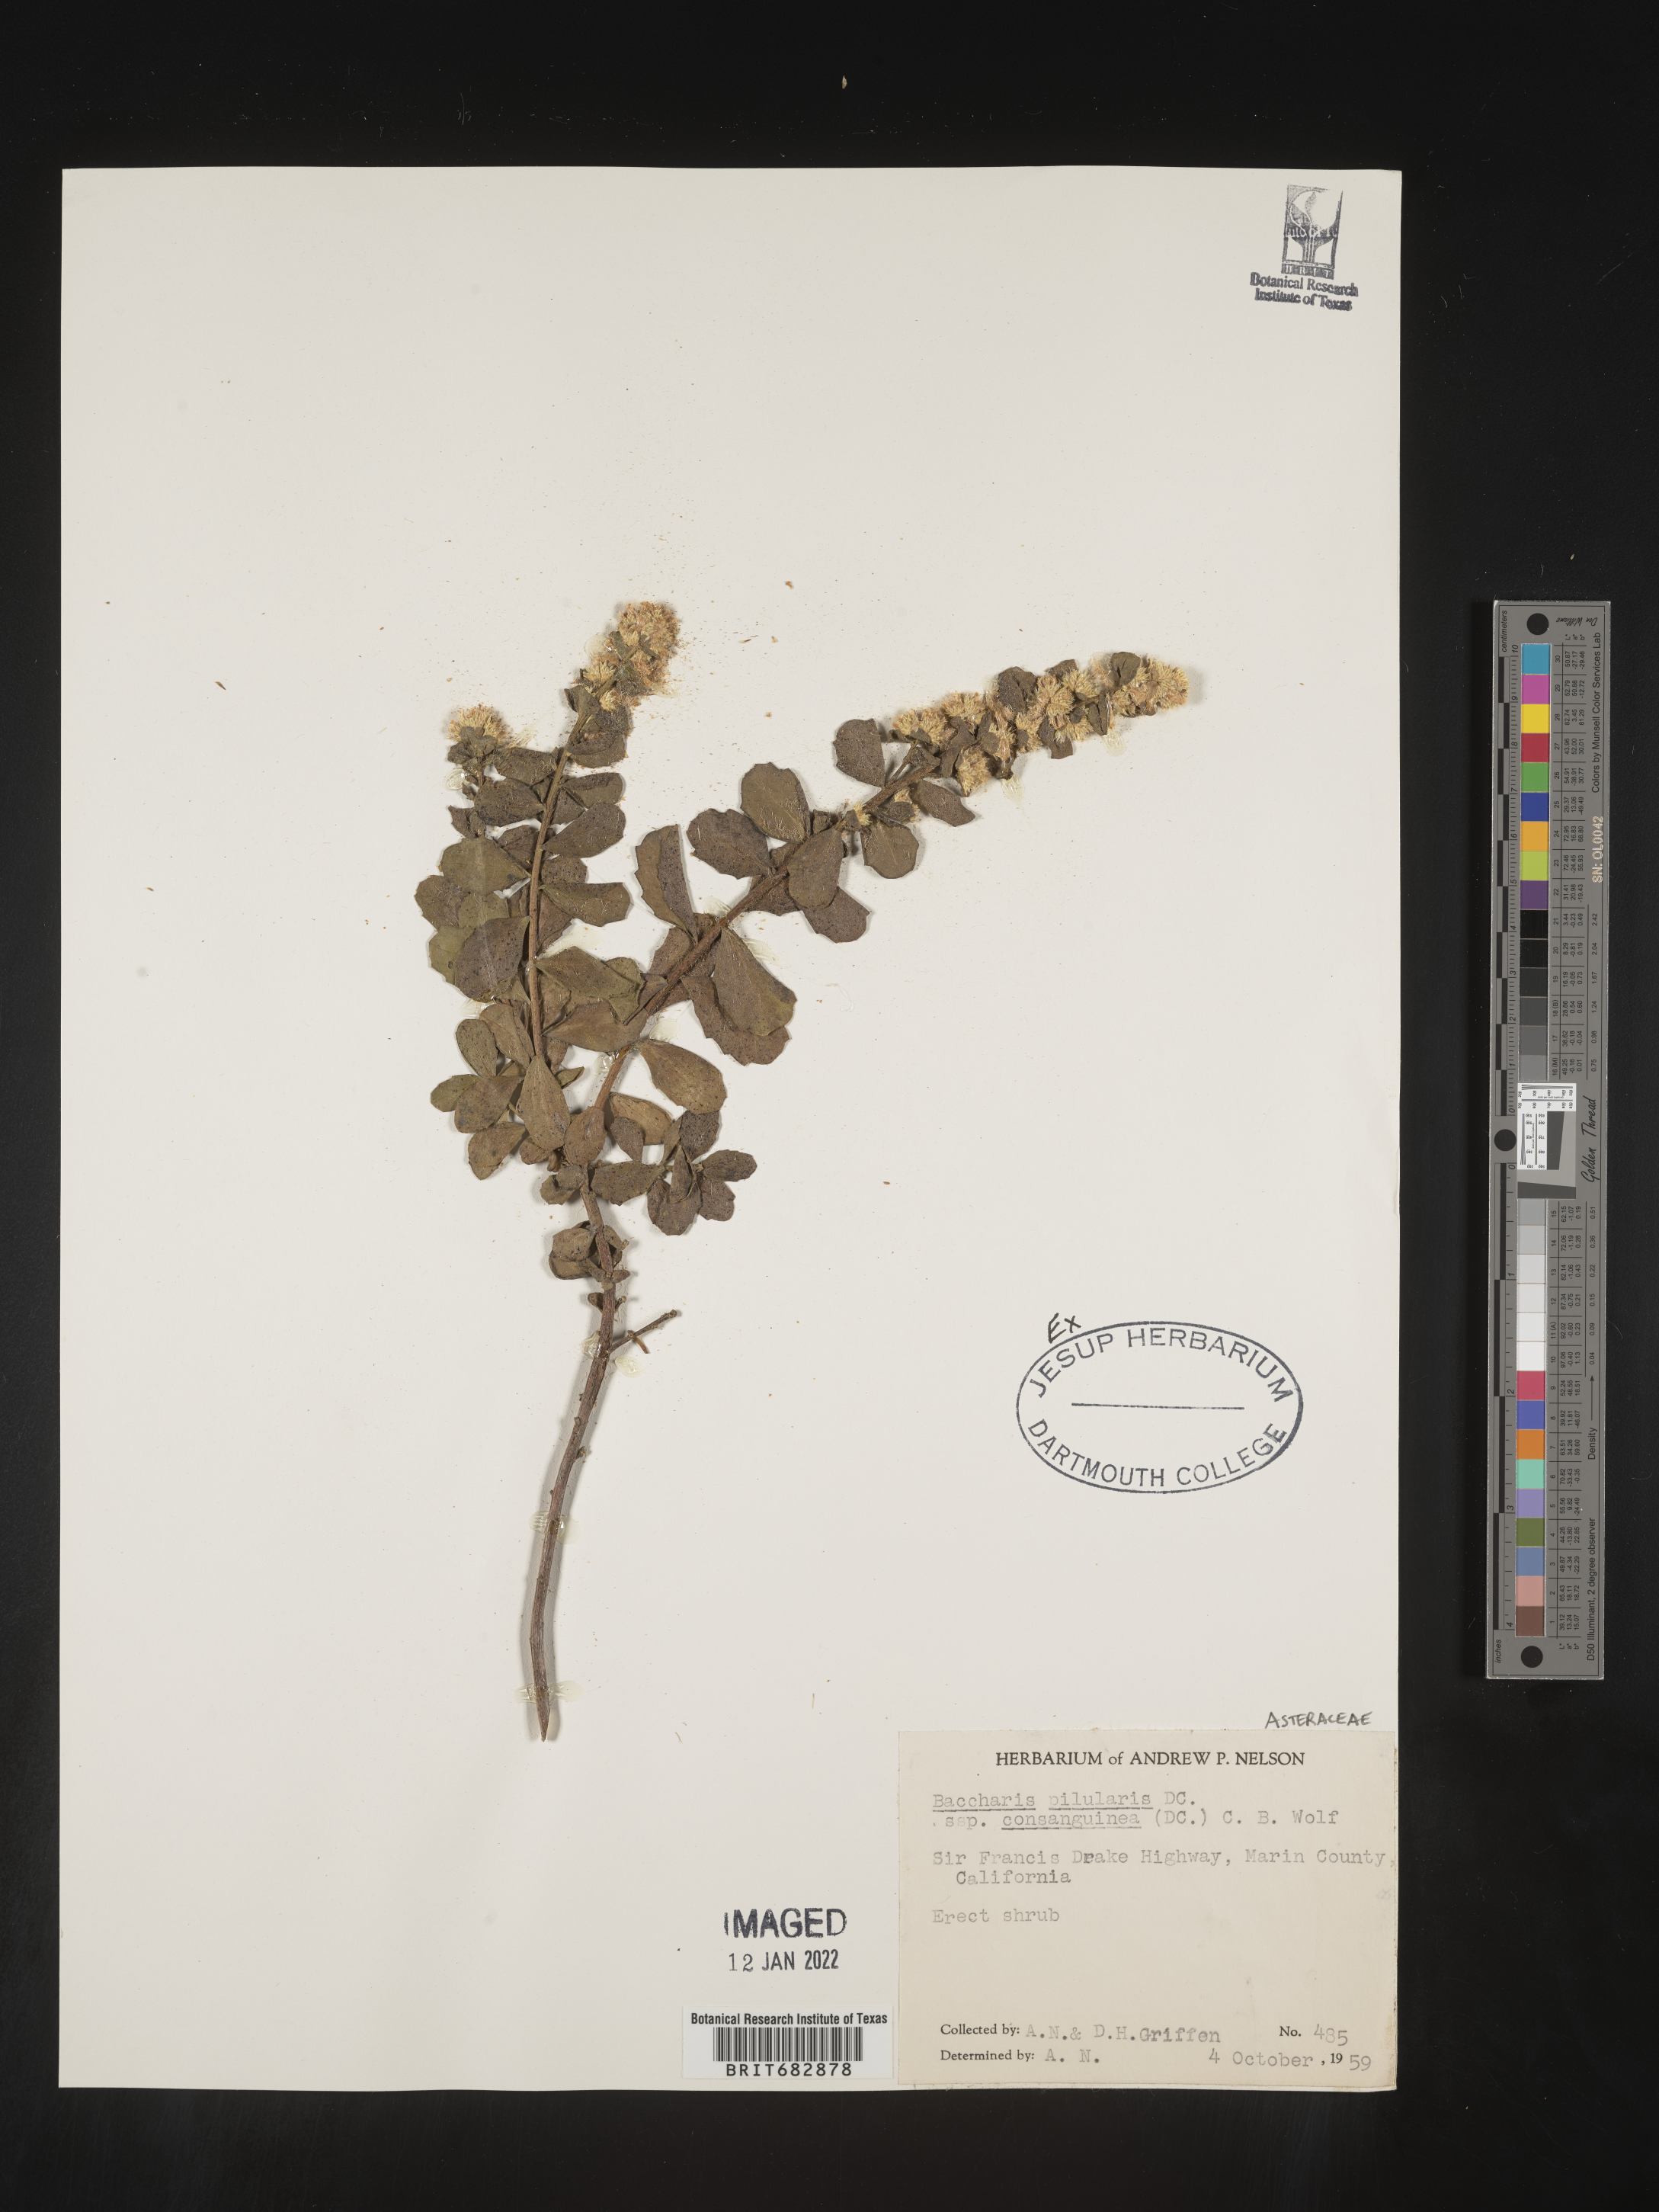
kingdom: Plantae
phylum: Tracheophyta
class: Magnoliopsida
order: Asterales
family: Asteraceae
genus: Baccharis
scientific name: Baccharis pilularis
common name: Coyotebrush
